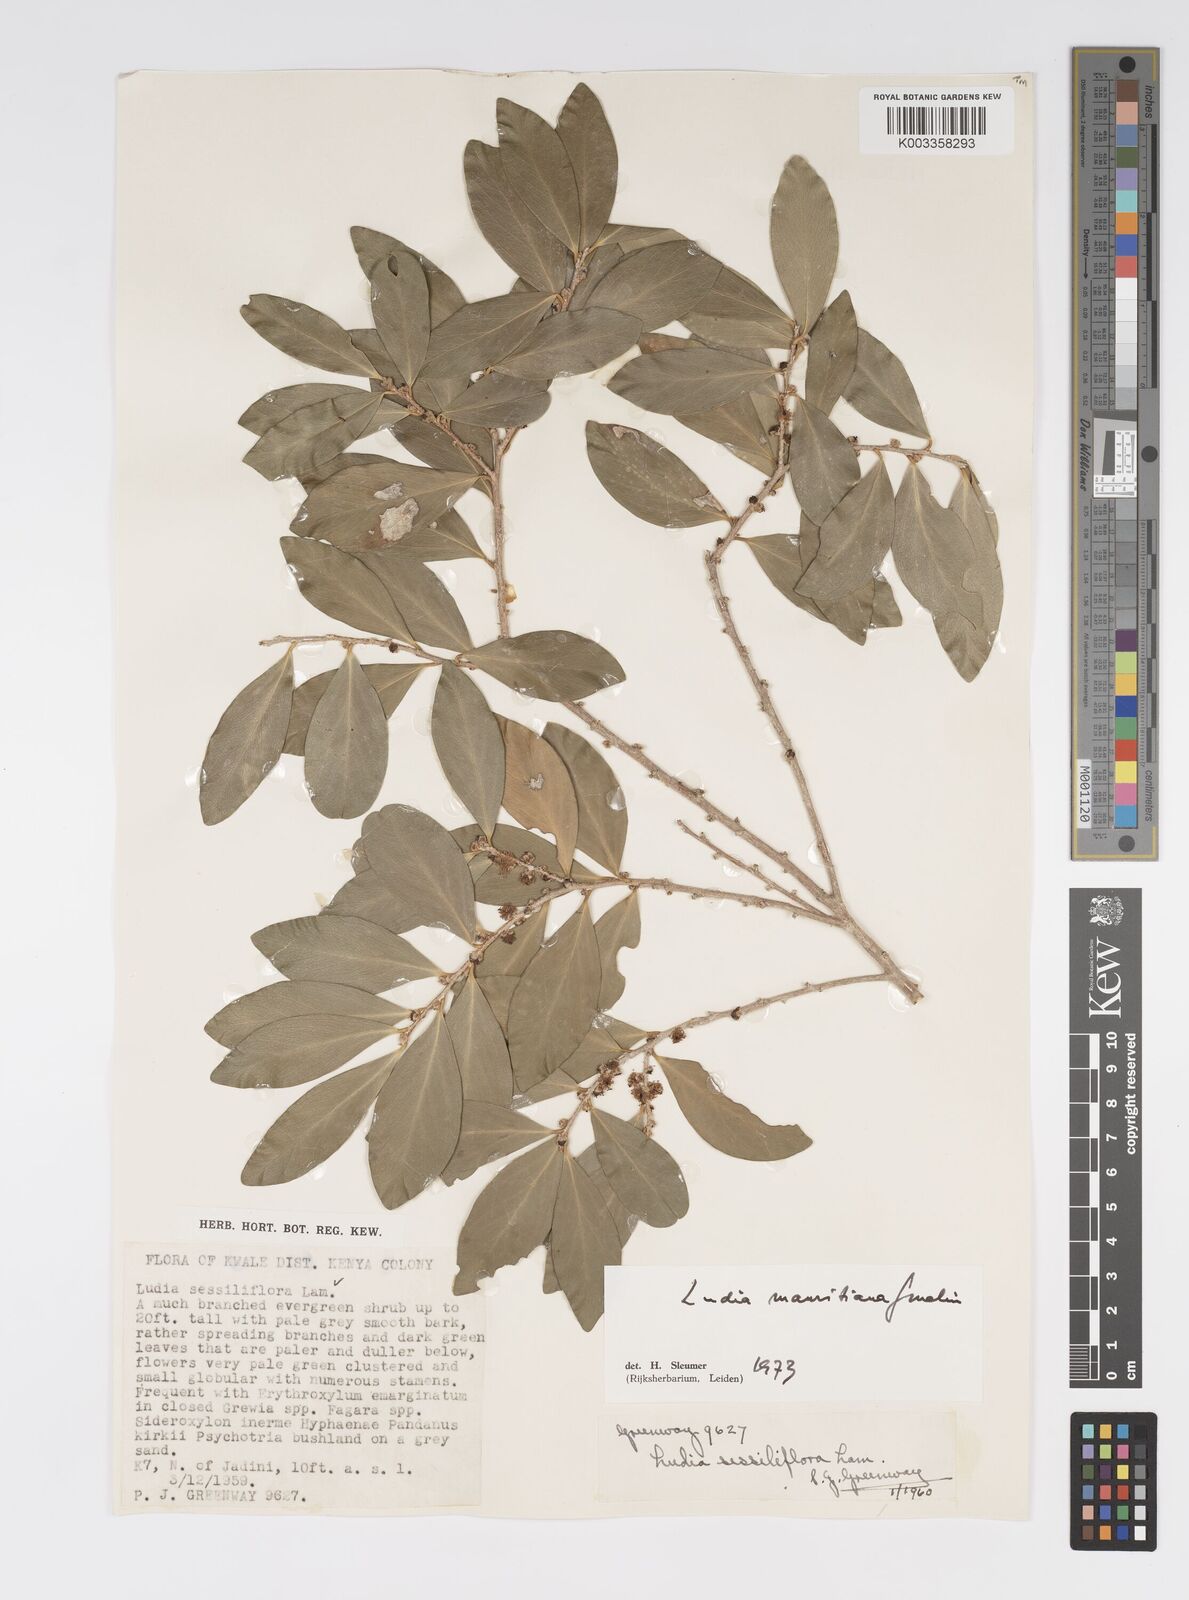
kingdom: Plantae
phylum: Tracheophyta
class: Magnoliopsida
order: Malpighiales
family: Salicaceae
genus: Ludia
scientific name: Ludia mauritiana
